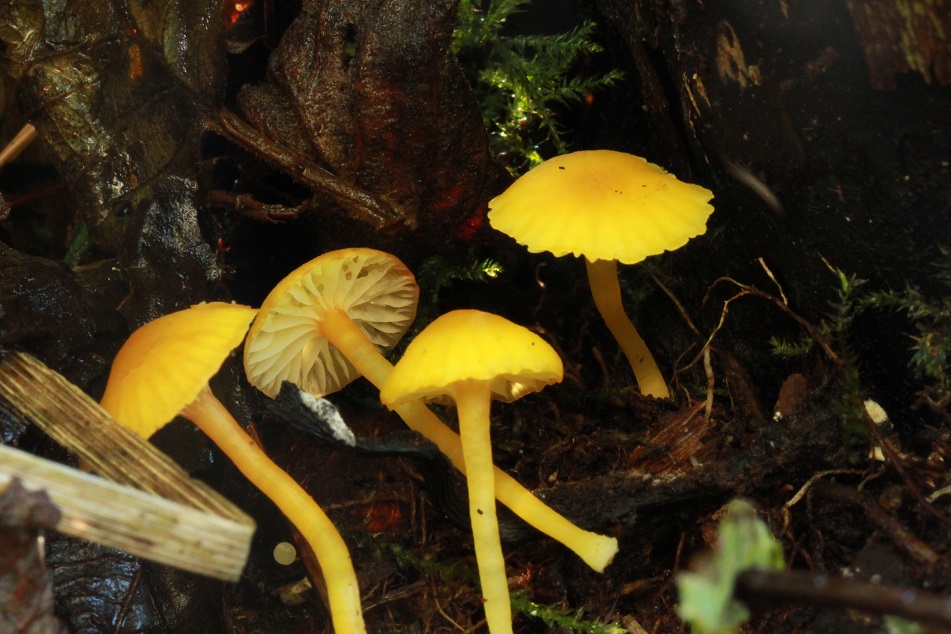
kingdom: Fungi
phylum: Basidiomycota
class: Agaricomycetes
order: Agaricales
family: Hygrophoraceae
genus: Hygrocybe
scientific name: Hygrocybe ceracea
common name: voksgul vokshat
